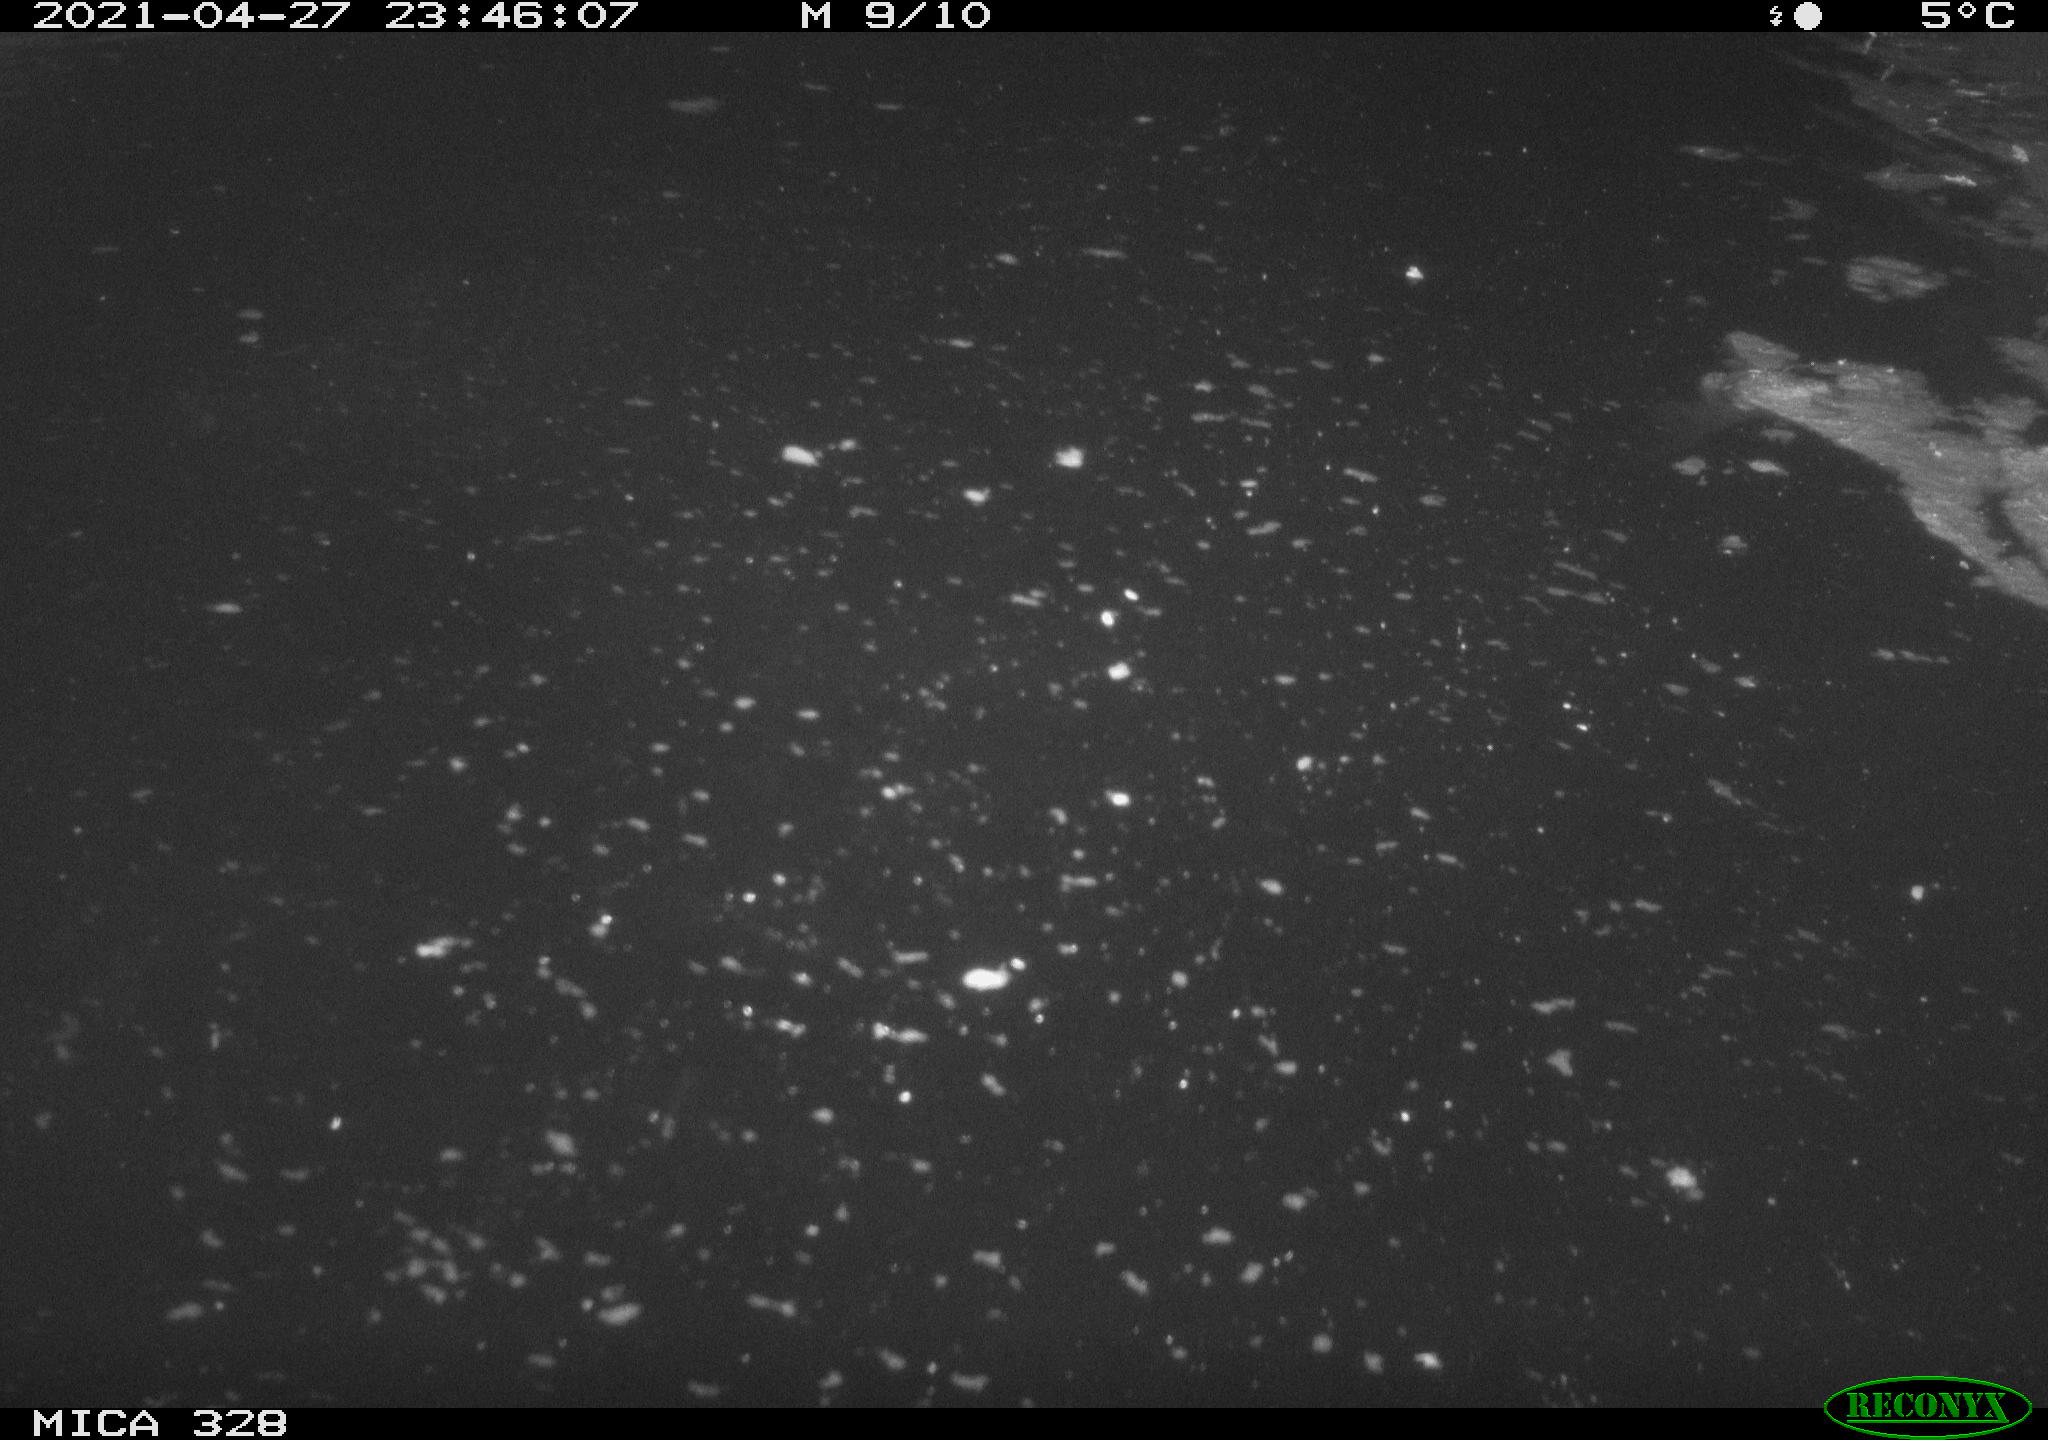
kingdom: Animalia
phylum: Chordata
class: Mammalia
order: Rodentia
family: Cricetidae
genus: Ondatra
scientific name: Ondatra zibethicus
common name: Muskrat
